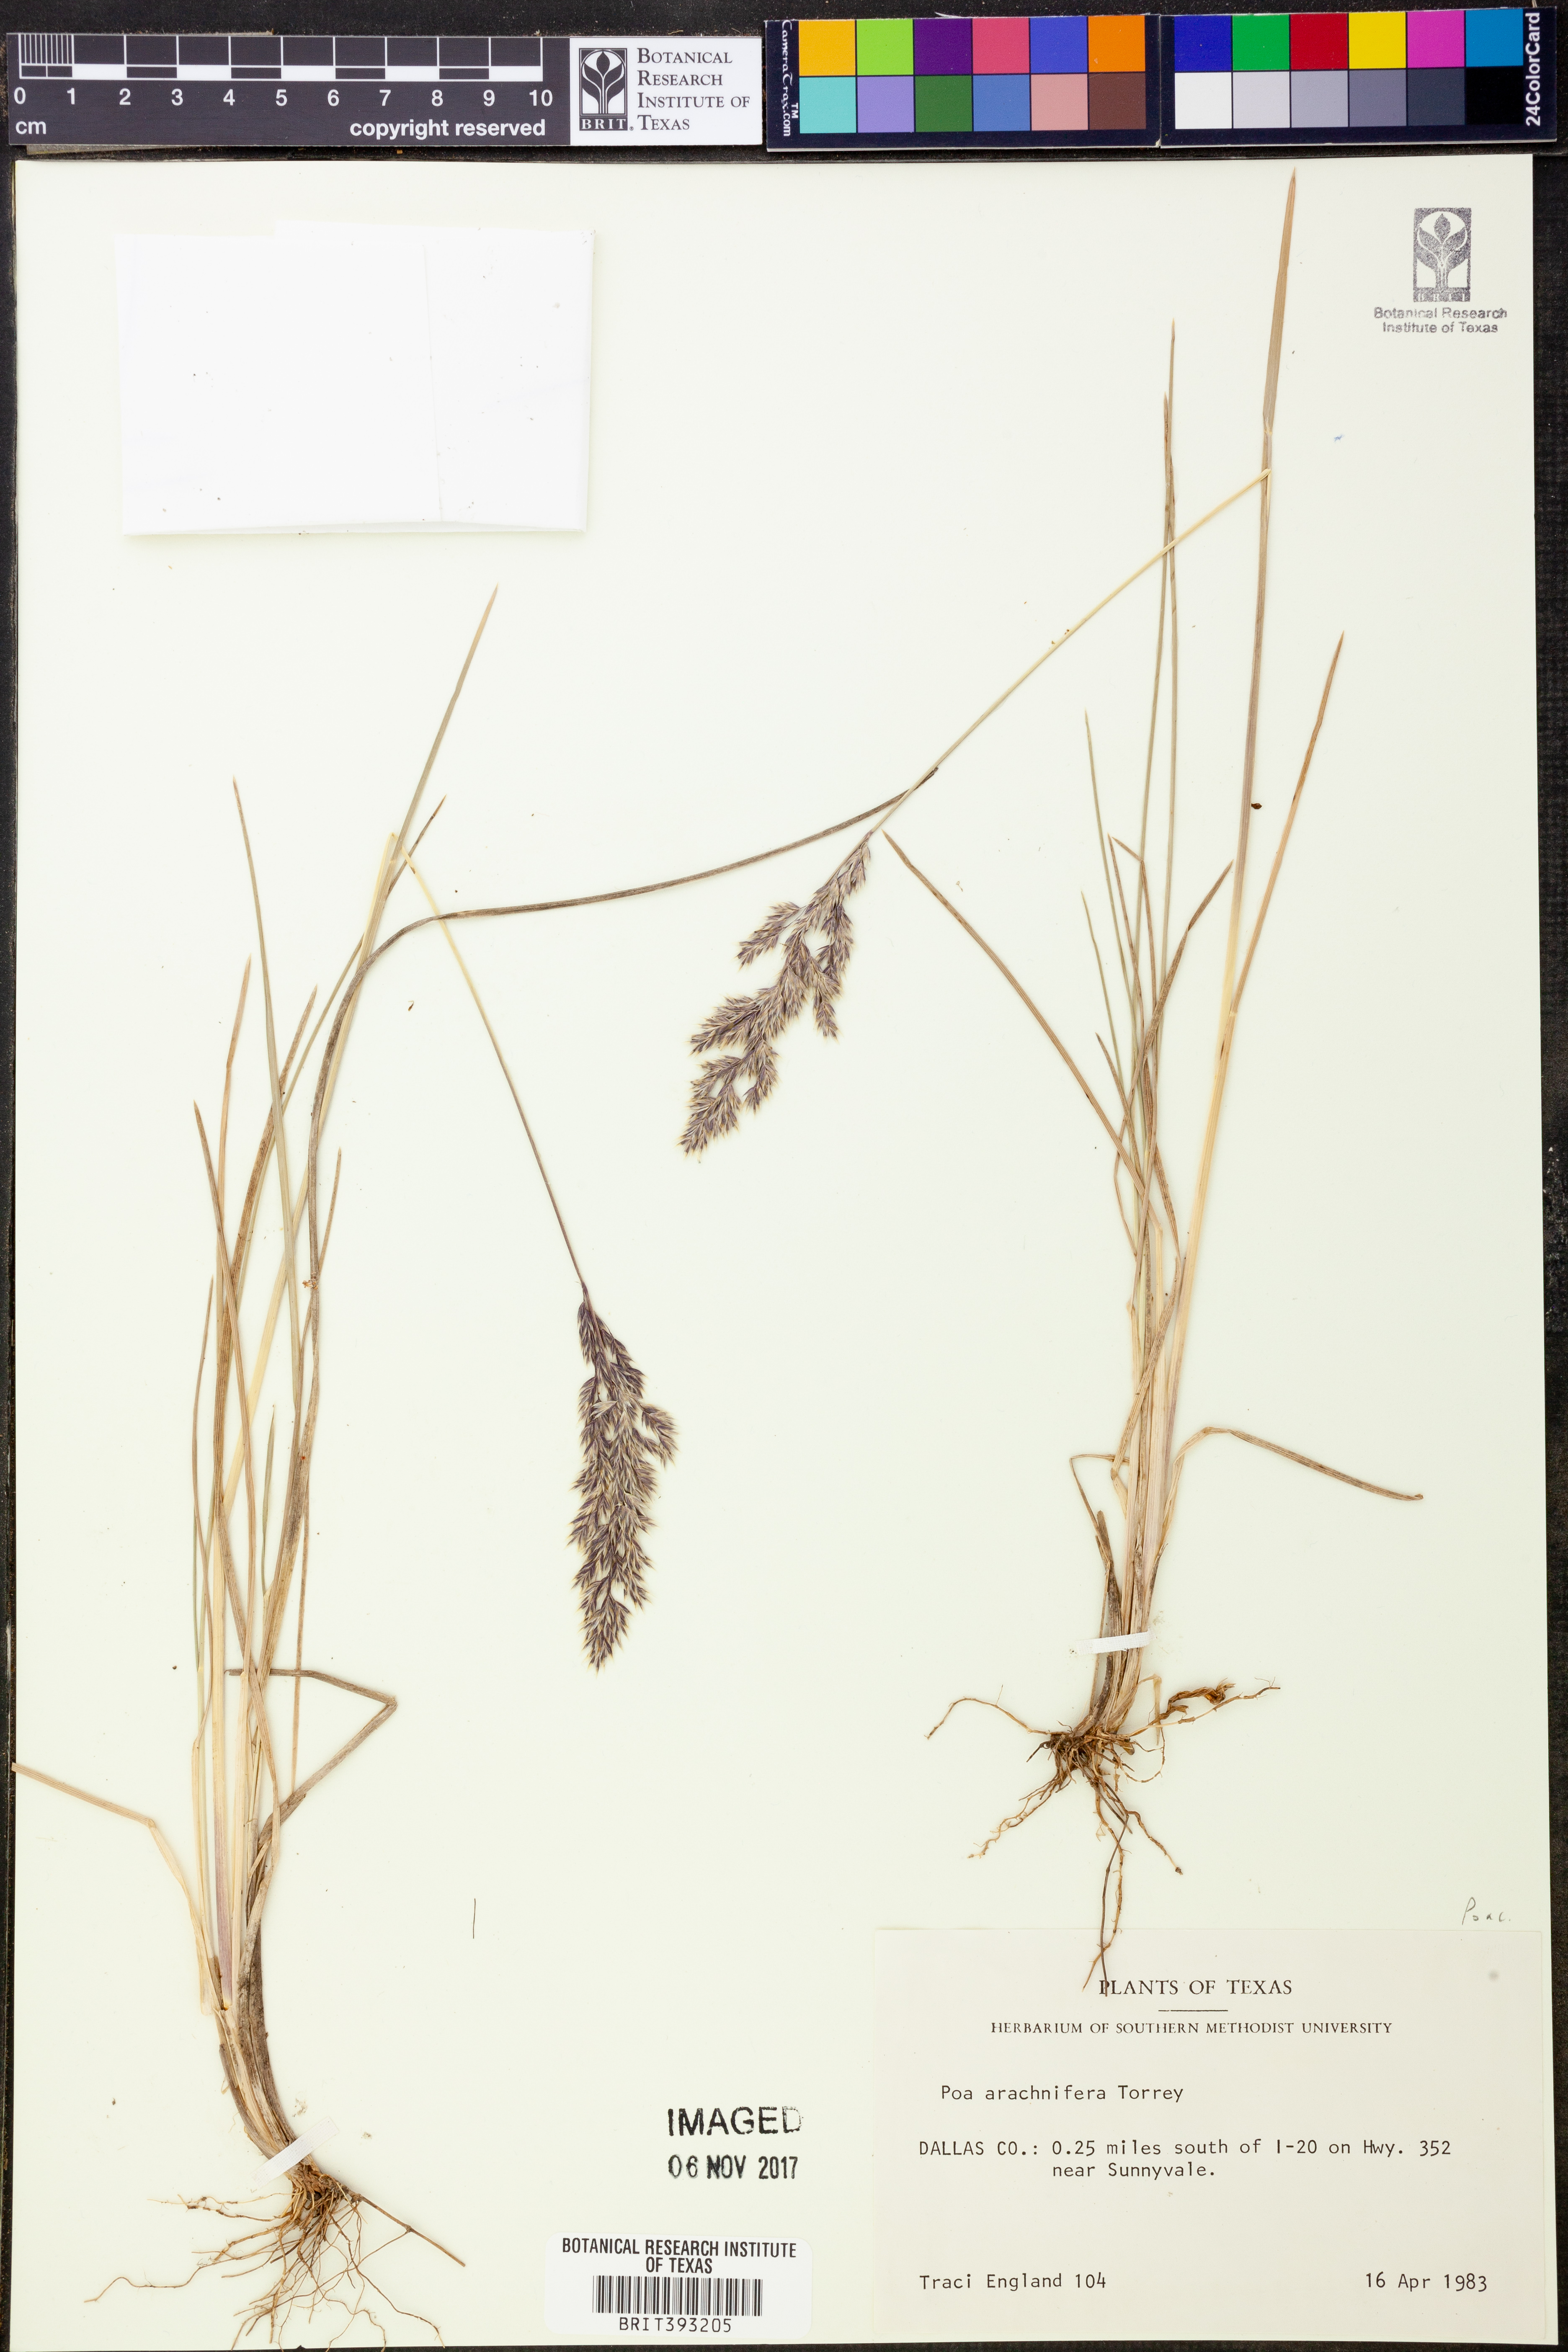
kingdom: Plantae
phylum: Tracheophyta
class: Liliopsida
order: Poales
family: Poaceae
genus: Poa
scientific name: Poa arachnifera
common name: Texas bluegrass
